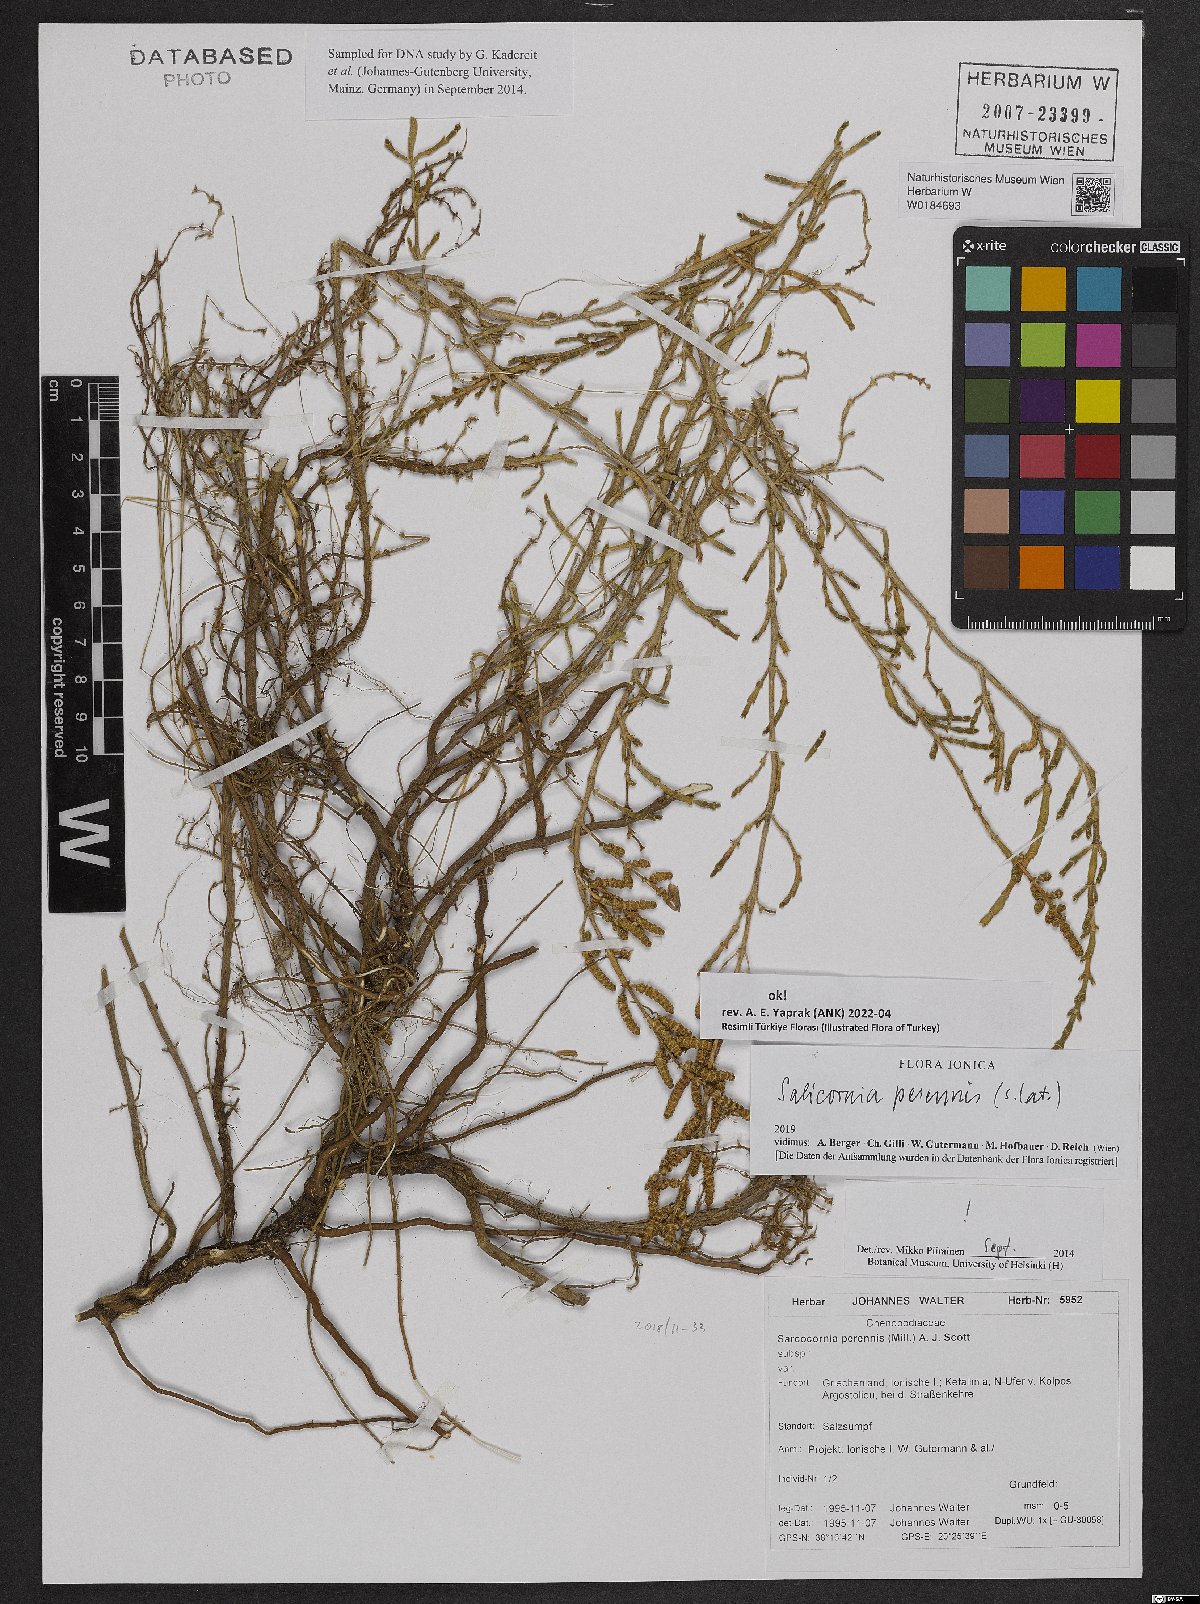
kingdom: Plantae
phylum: Tracheophyta
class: Magnoliopsida
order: Caryophyllales
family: Amaranthaceae
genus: Salicornia
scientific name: Salicornia perennis
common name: Chicken claws
